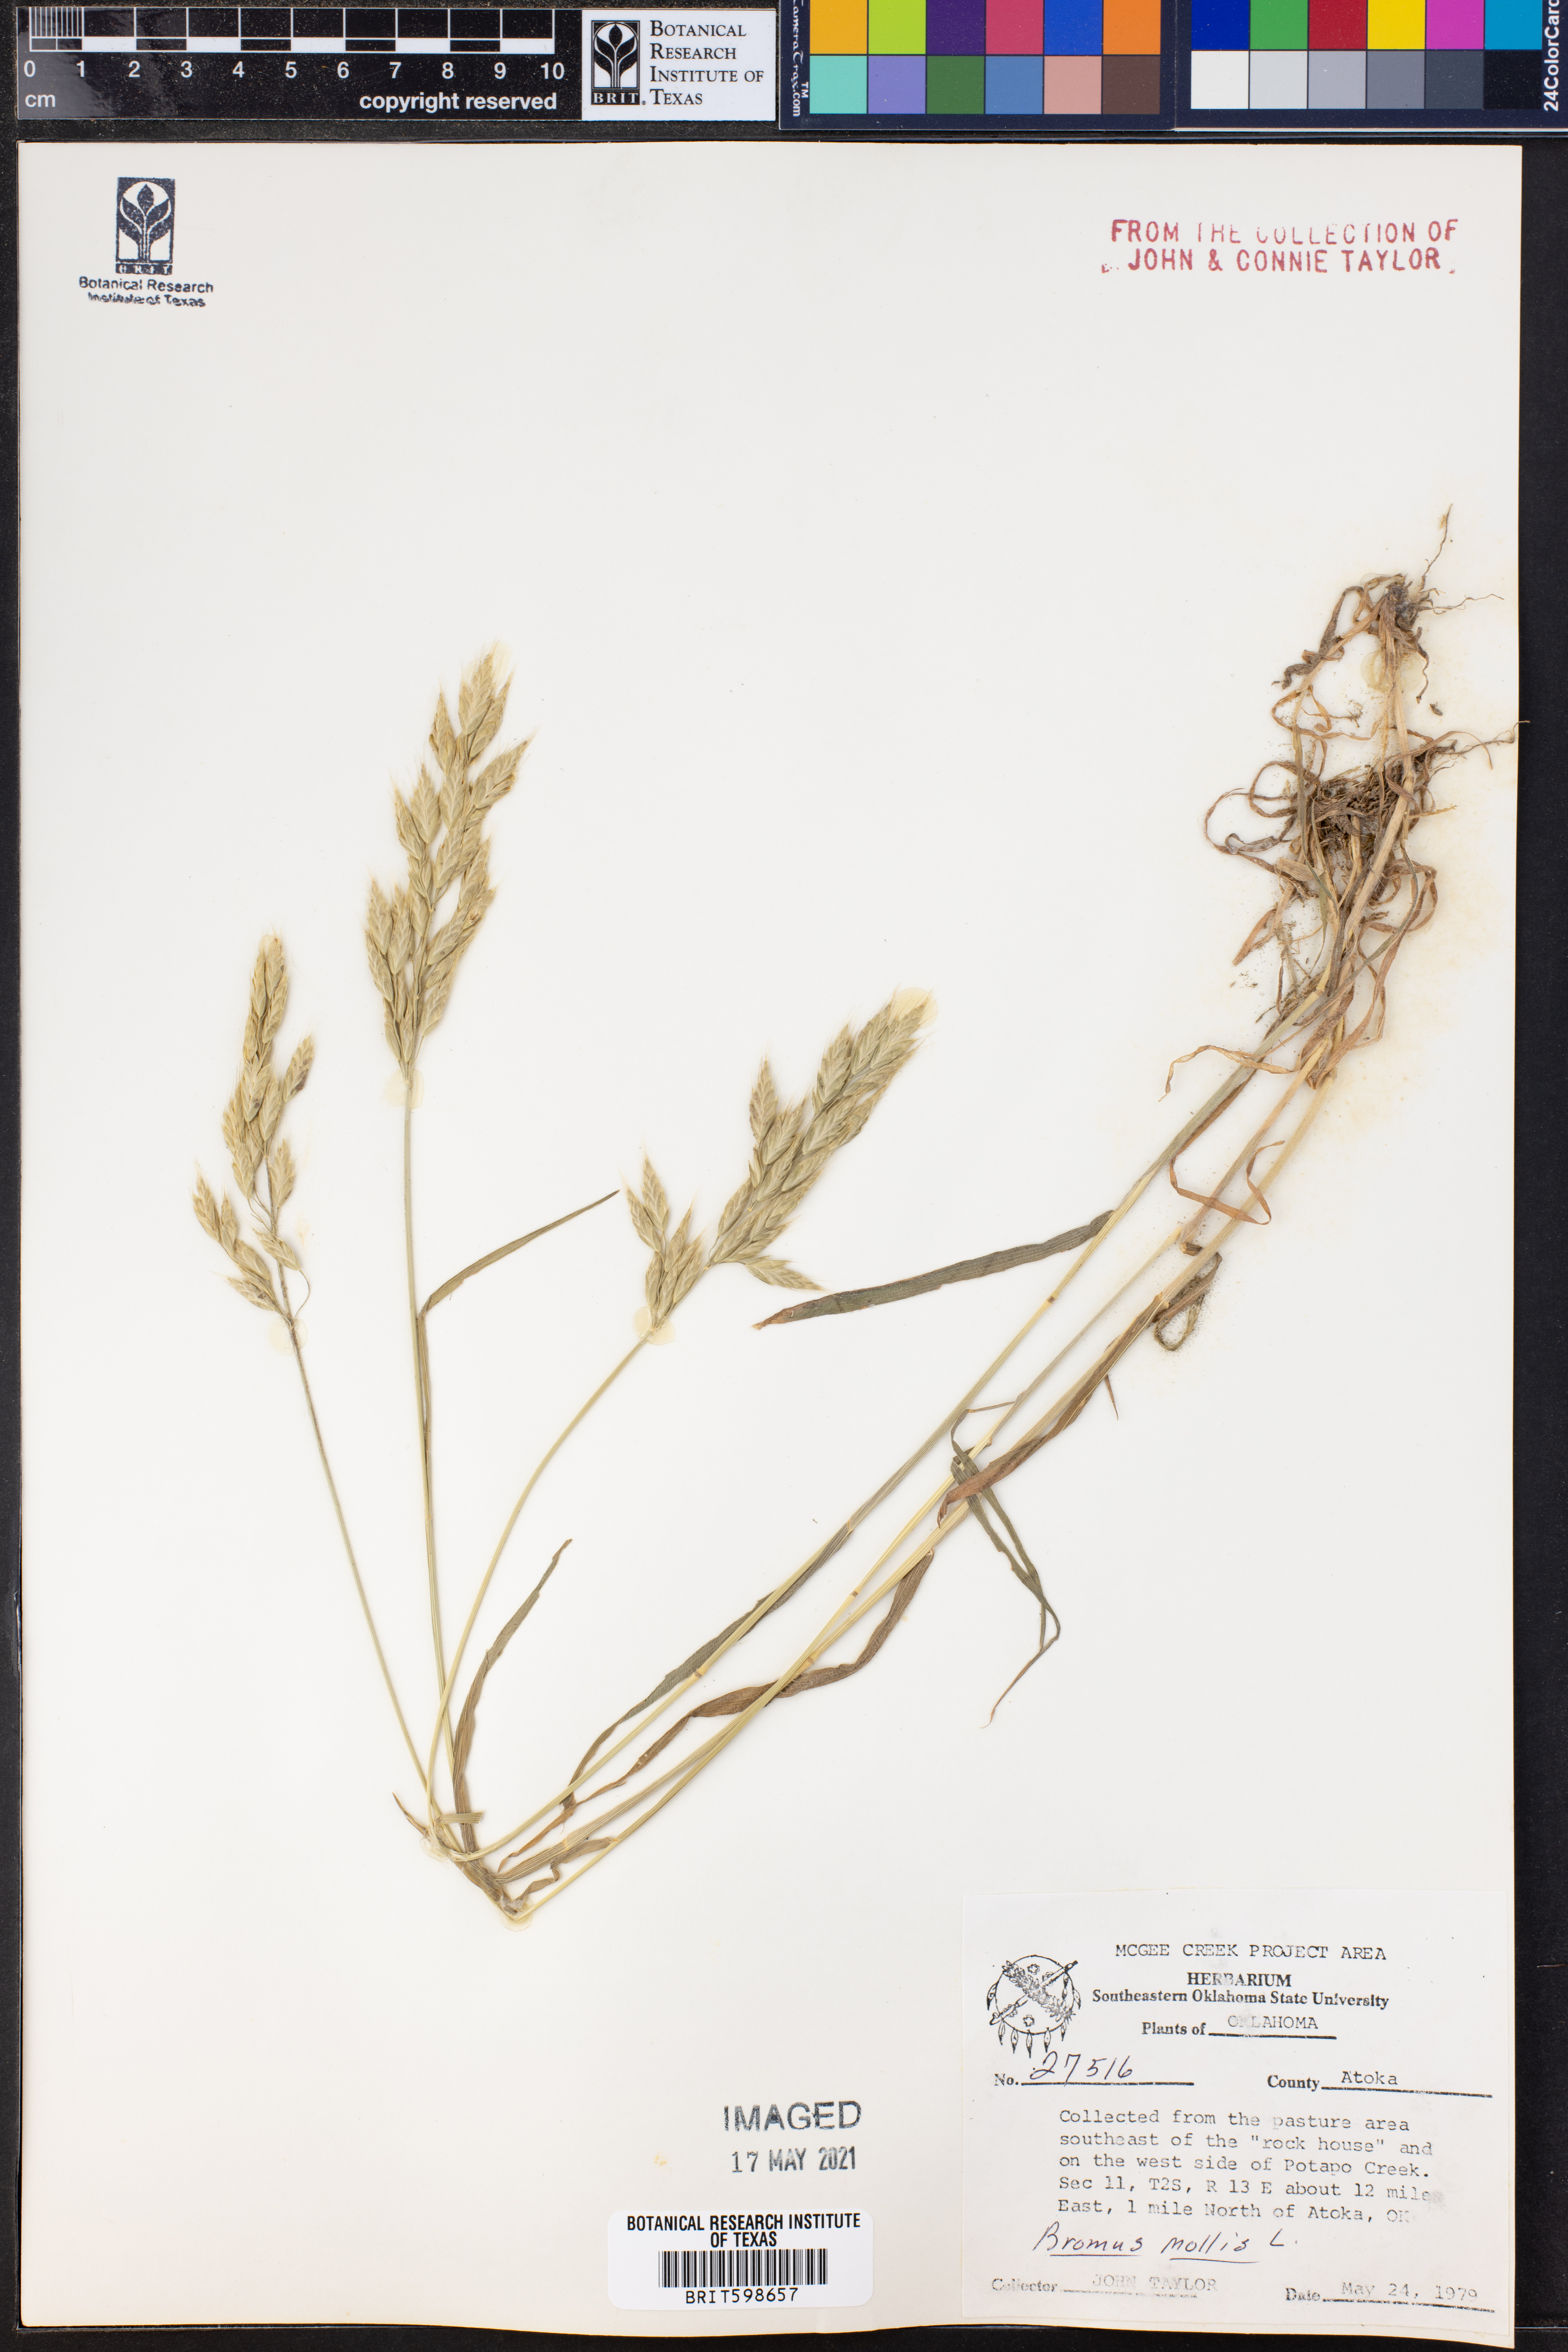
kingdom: Plantae
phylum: Tracheophyta
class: Liliopsida
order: Poales
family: Poaceae
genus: Bromus
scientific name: Bromus
